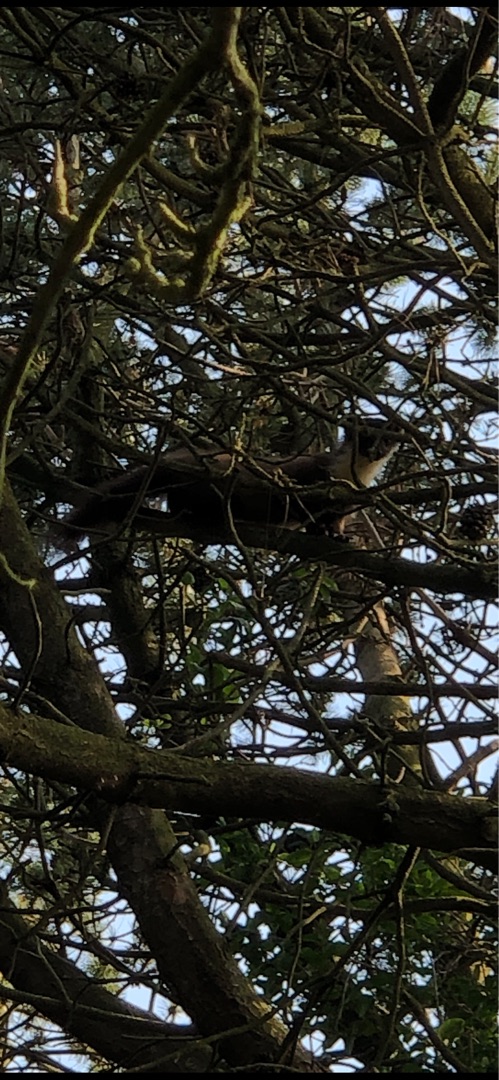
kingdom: Animalia
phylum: Chordata
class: Mammalia
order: Carnivora
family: Mustelidae
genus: Martes
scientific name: Martes martes
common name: Skovmår
